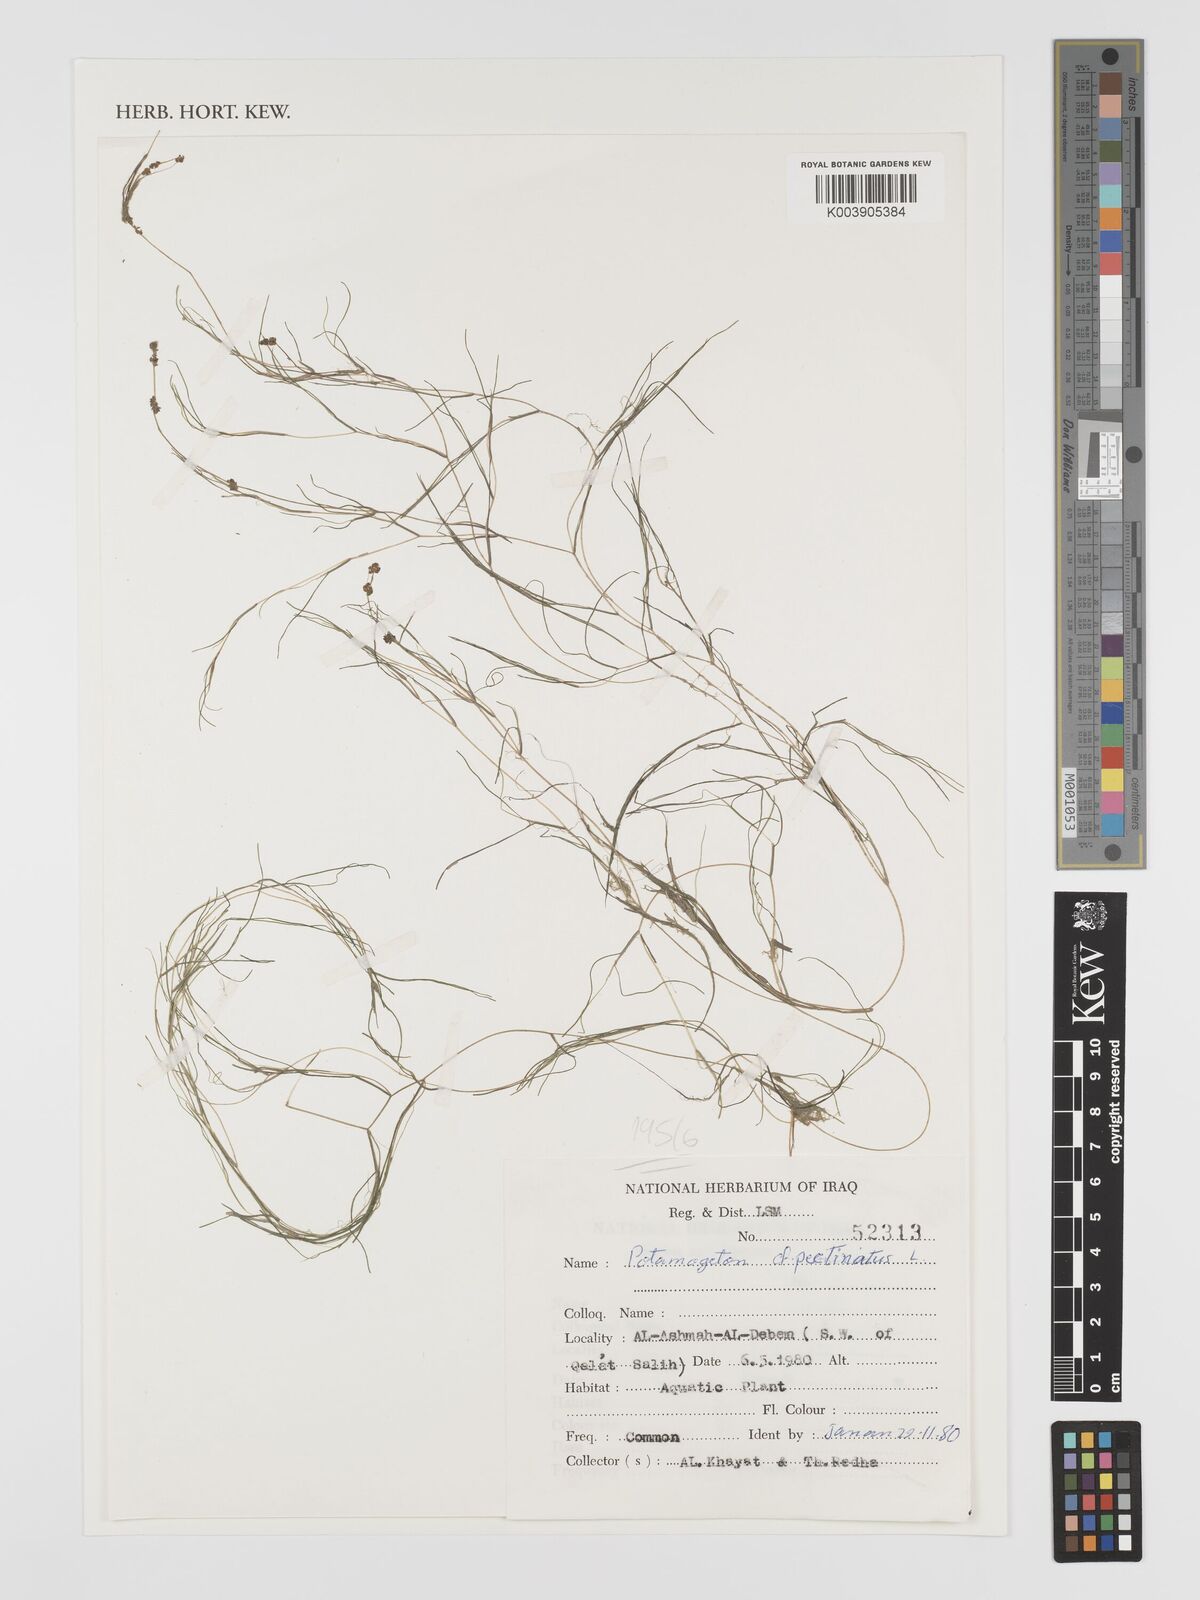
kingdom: Plantae
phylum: Tracheophyta
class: Liliopsida
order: Alismatales
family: Potamogetonaceae
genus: Stuckenia
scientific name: Stuckenia pectinata
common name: Sago pondweed
